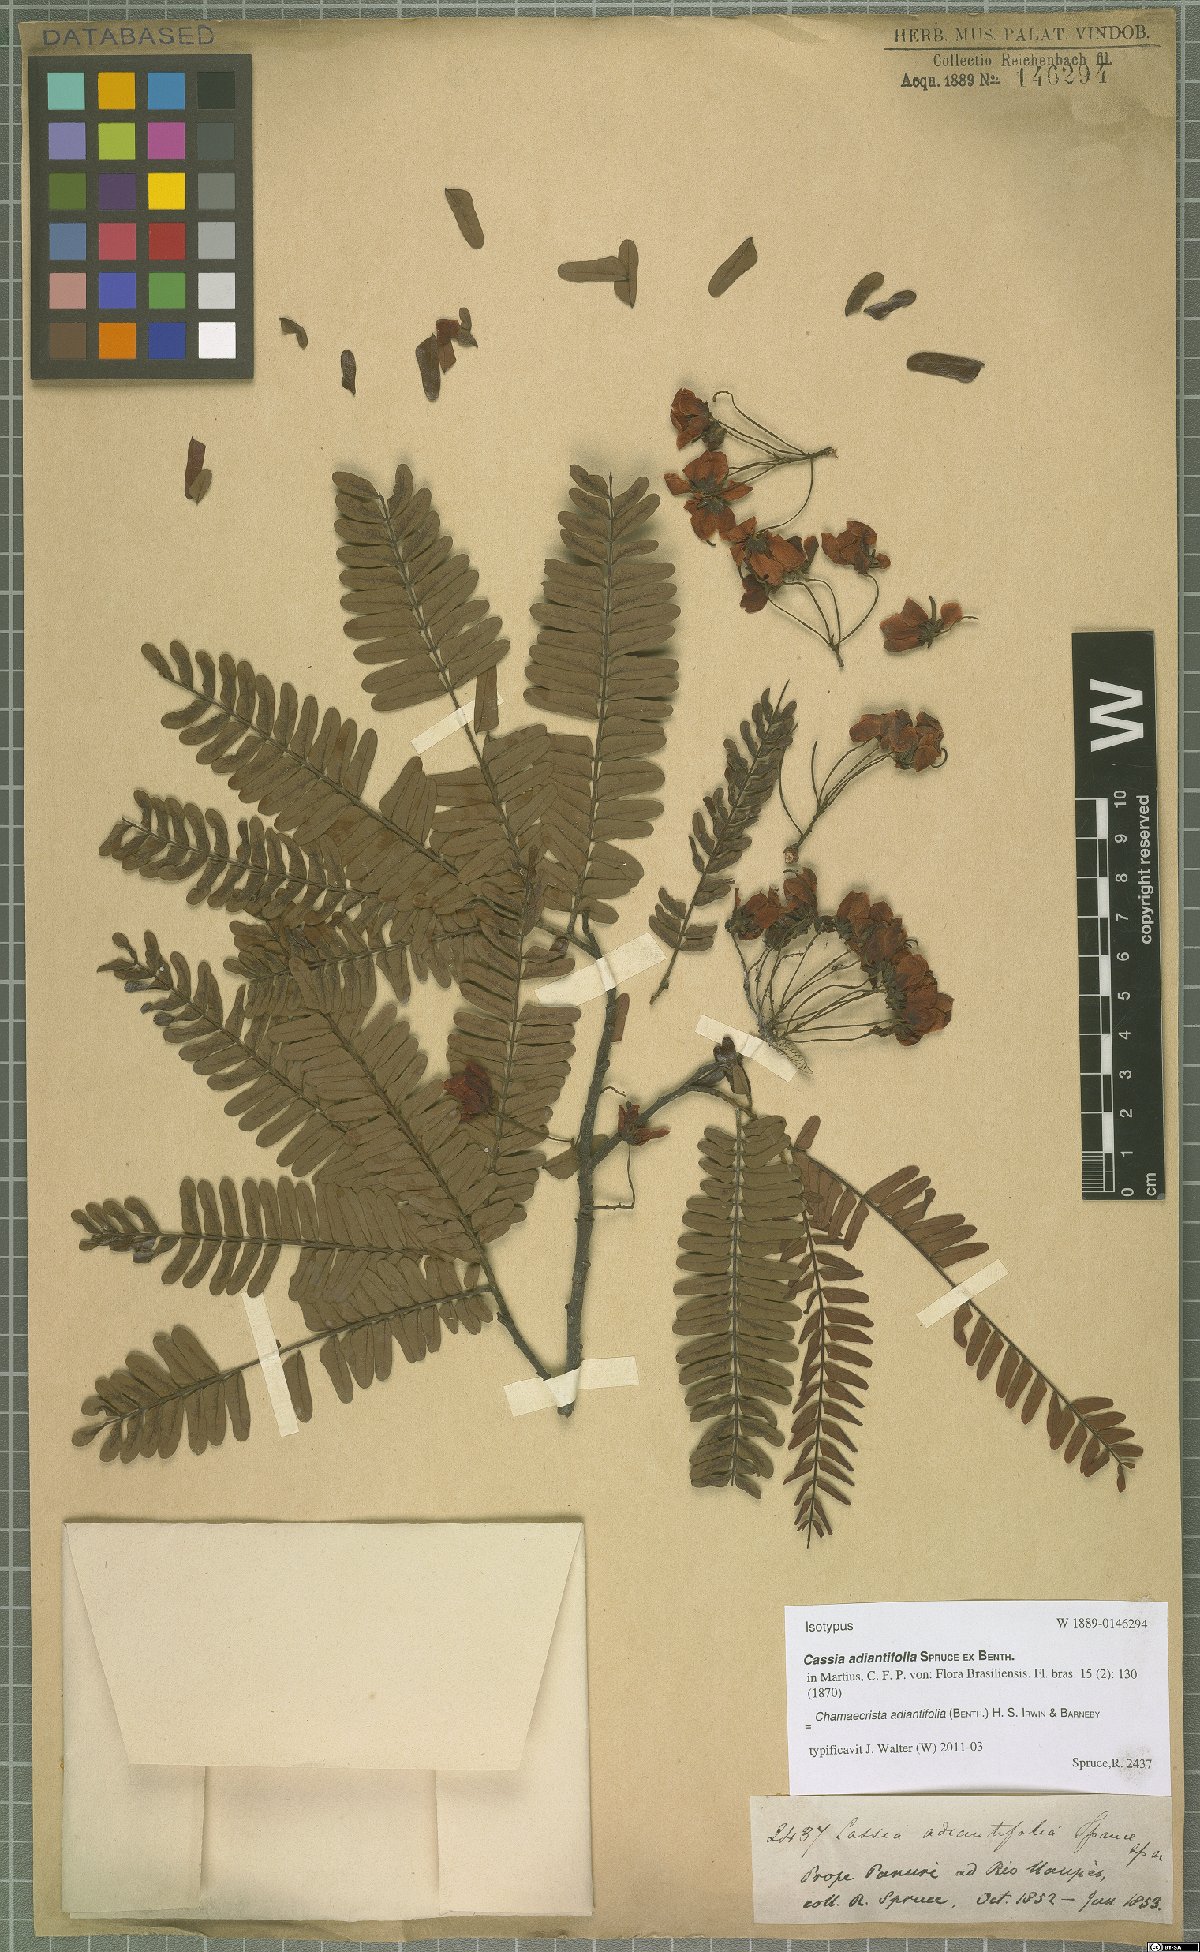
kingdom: Plantae
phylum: Tracheophyta
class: Magnoliopsida
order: Fabales
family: Fabaceae
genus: Chamaecrista
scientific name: Chamaecrista adiantifolia
